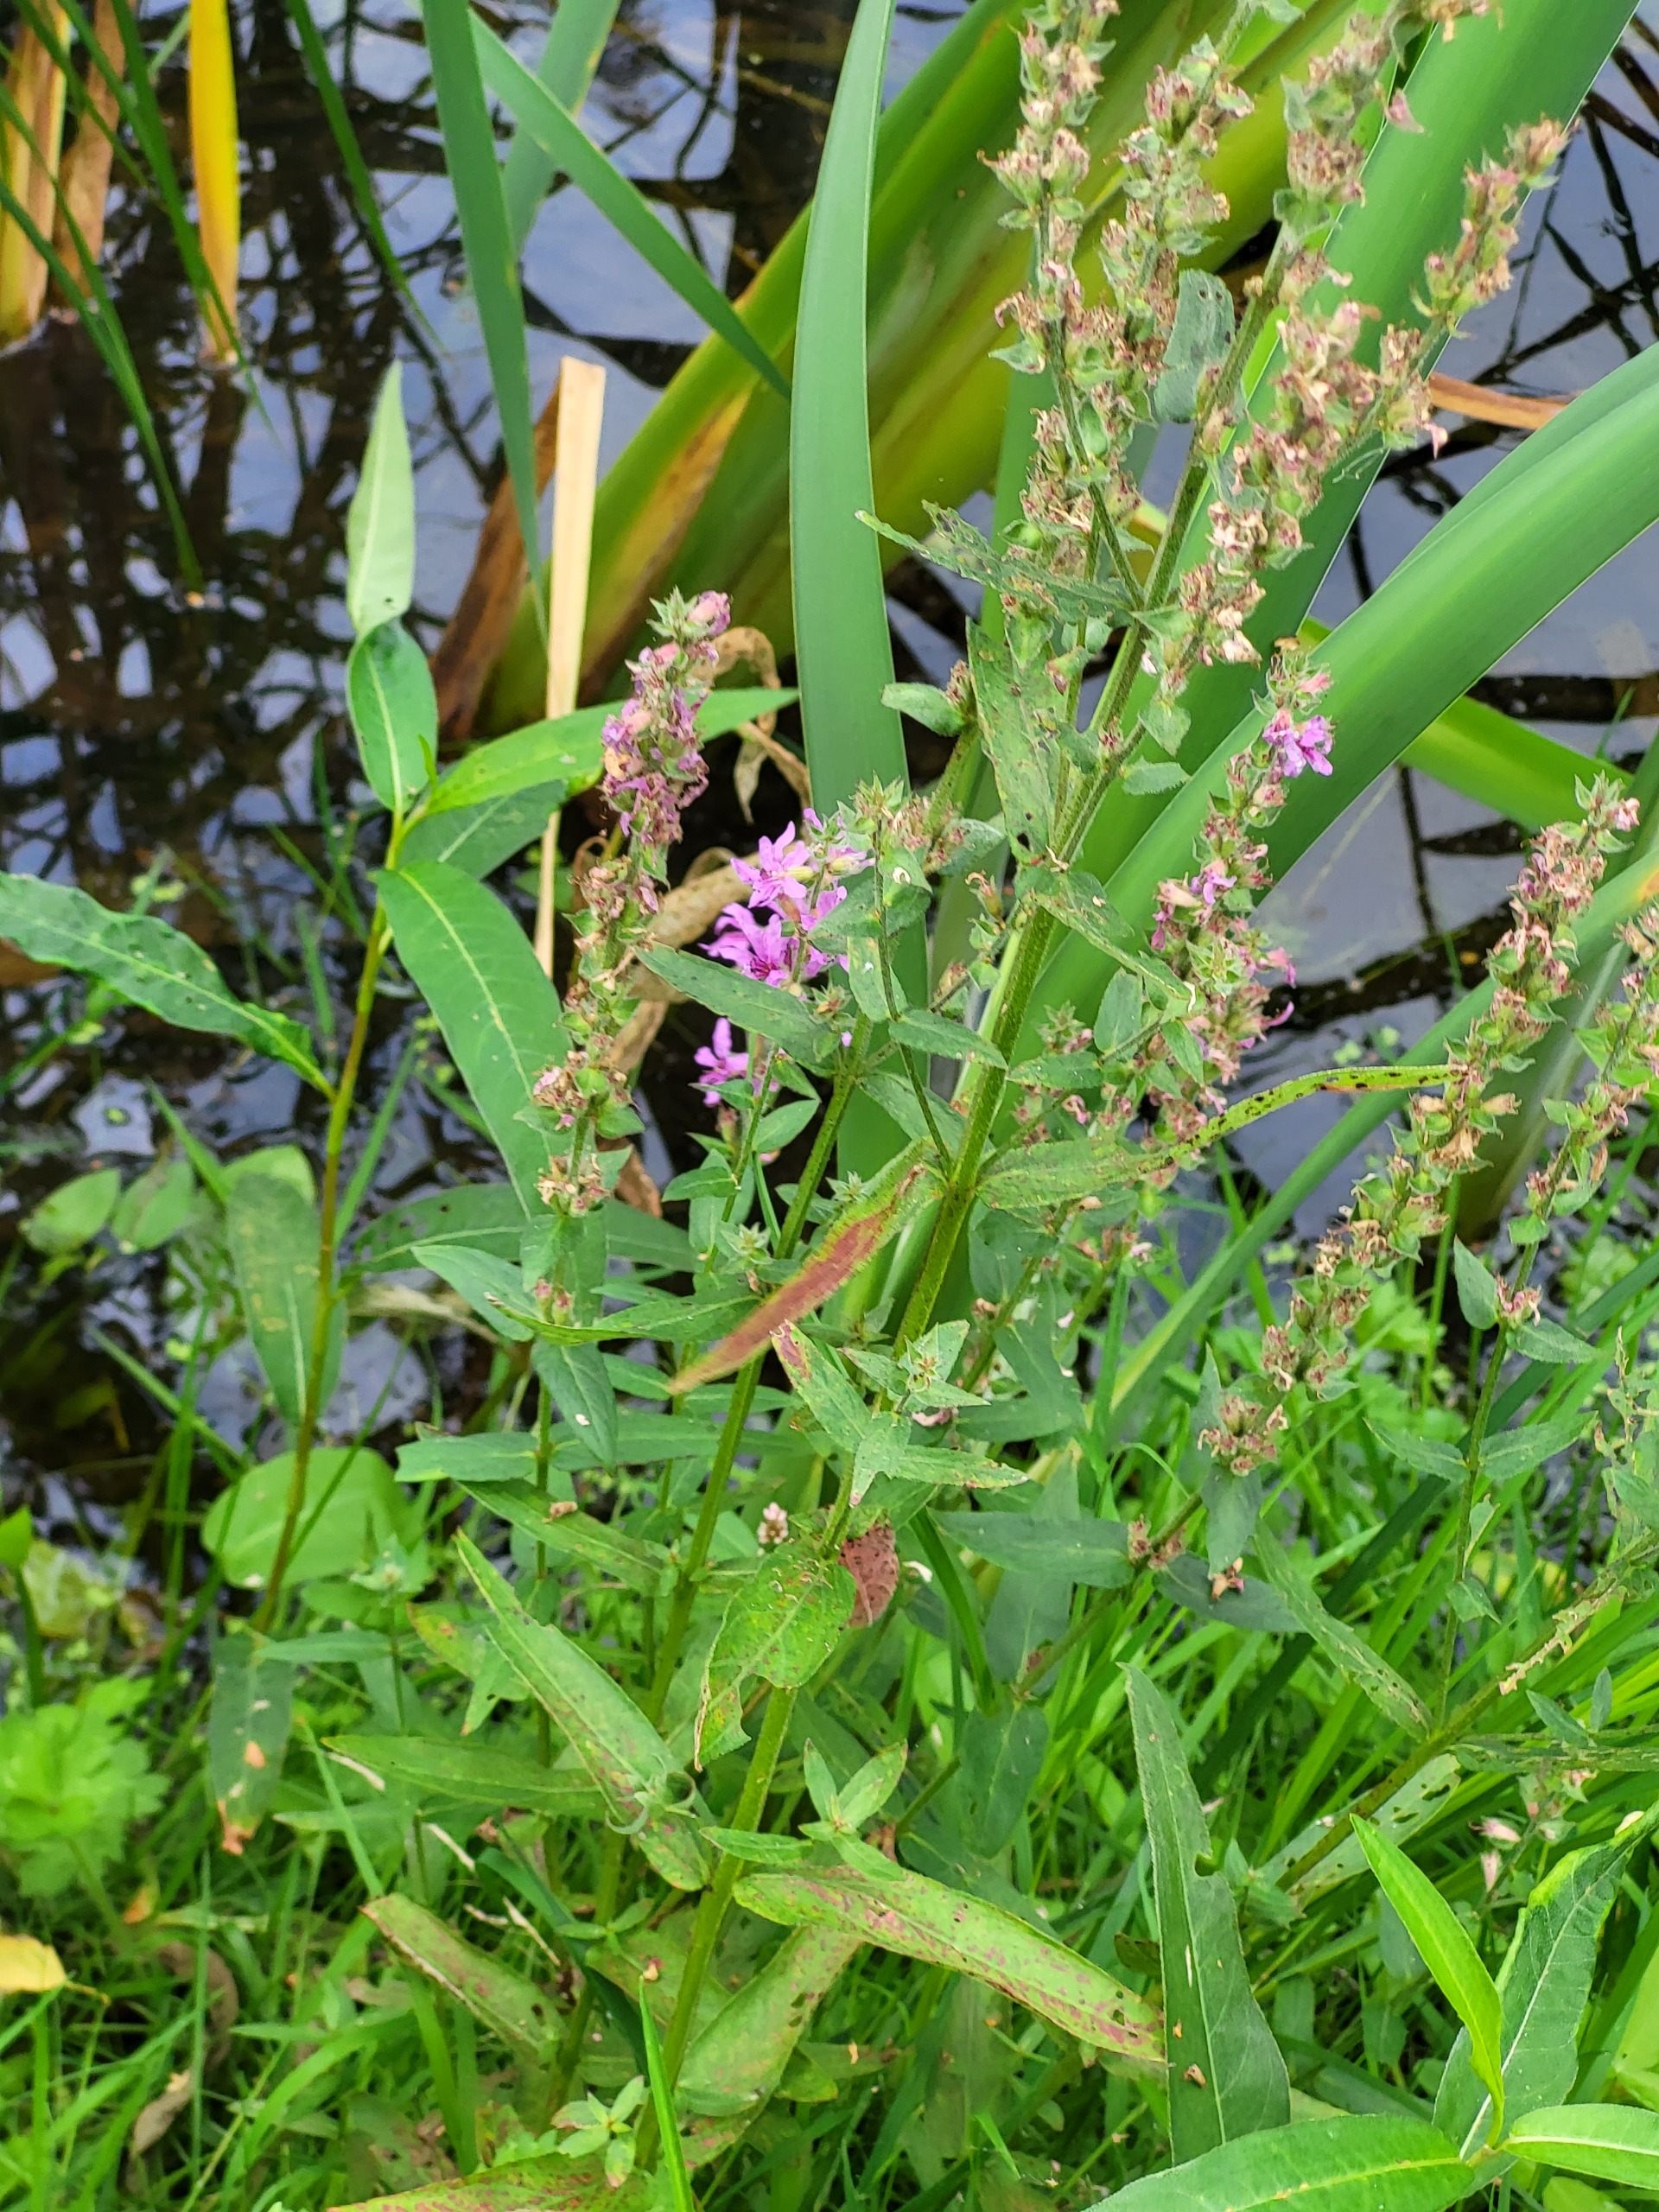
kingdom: Plantae
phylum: Tracheophyta
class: Magnoliopsida
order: Myrtales
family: Lythraceae
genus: Lythrum
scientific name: Lythrum salicaria
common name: Kattehale
